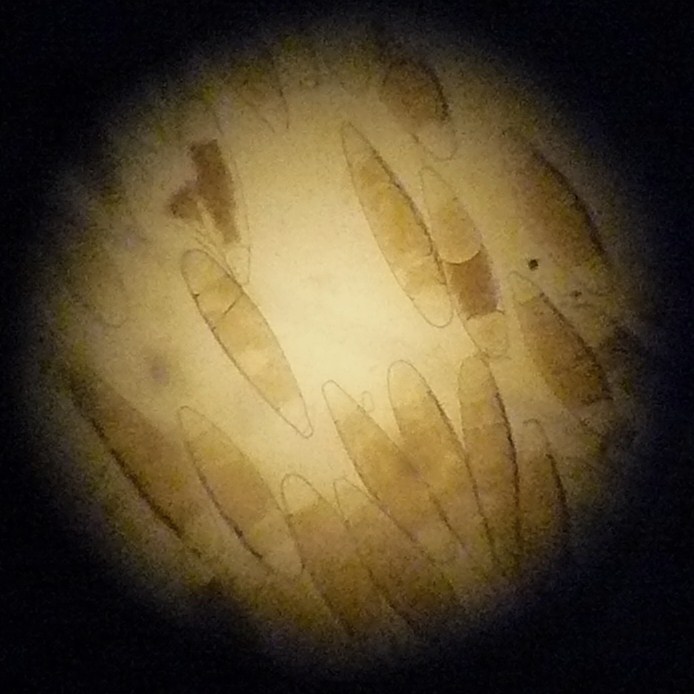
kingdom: Fungi
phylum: Ascomycota
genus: Bactridium
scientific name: Bactridium flavum
